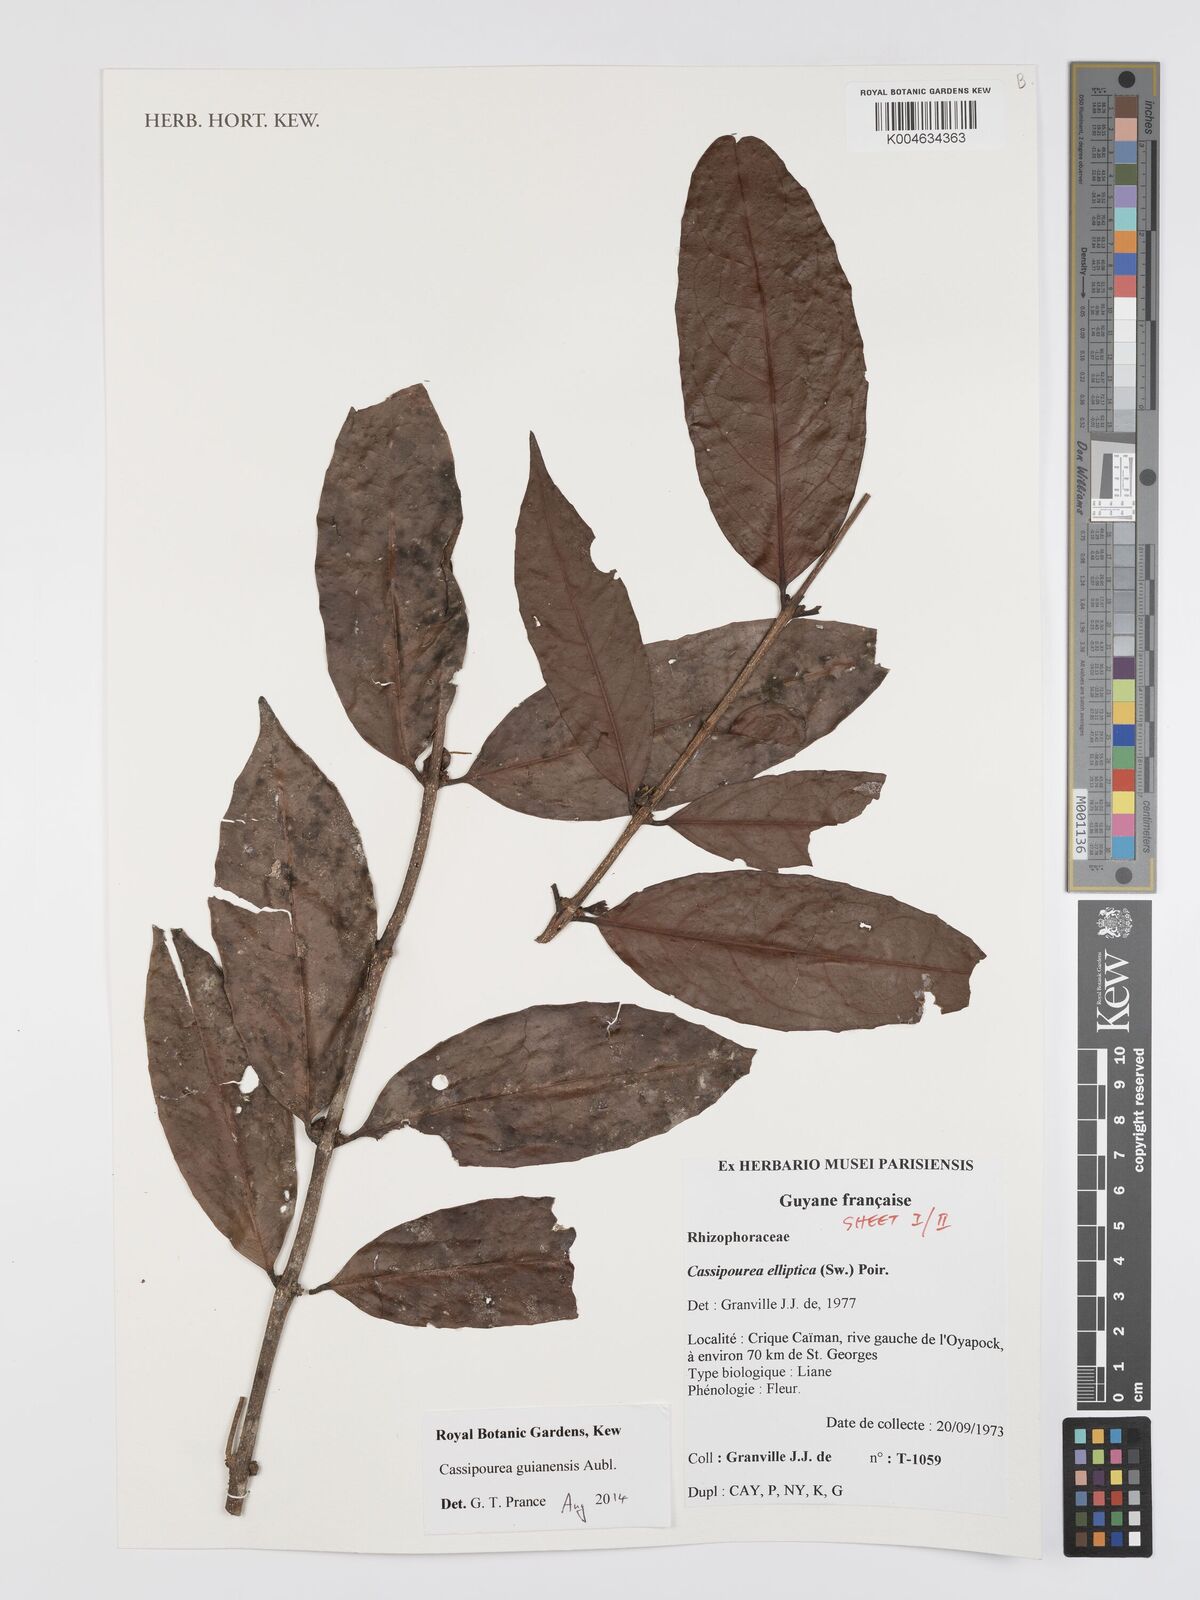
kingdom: Plantae
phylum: Tracheophyta
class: Magnoliopsida
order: Malpighiales
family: Rhizophoraceae
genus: Cassipourea
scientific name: Cassipourea guianensis
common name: Bastard waterwood
